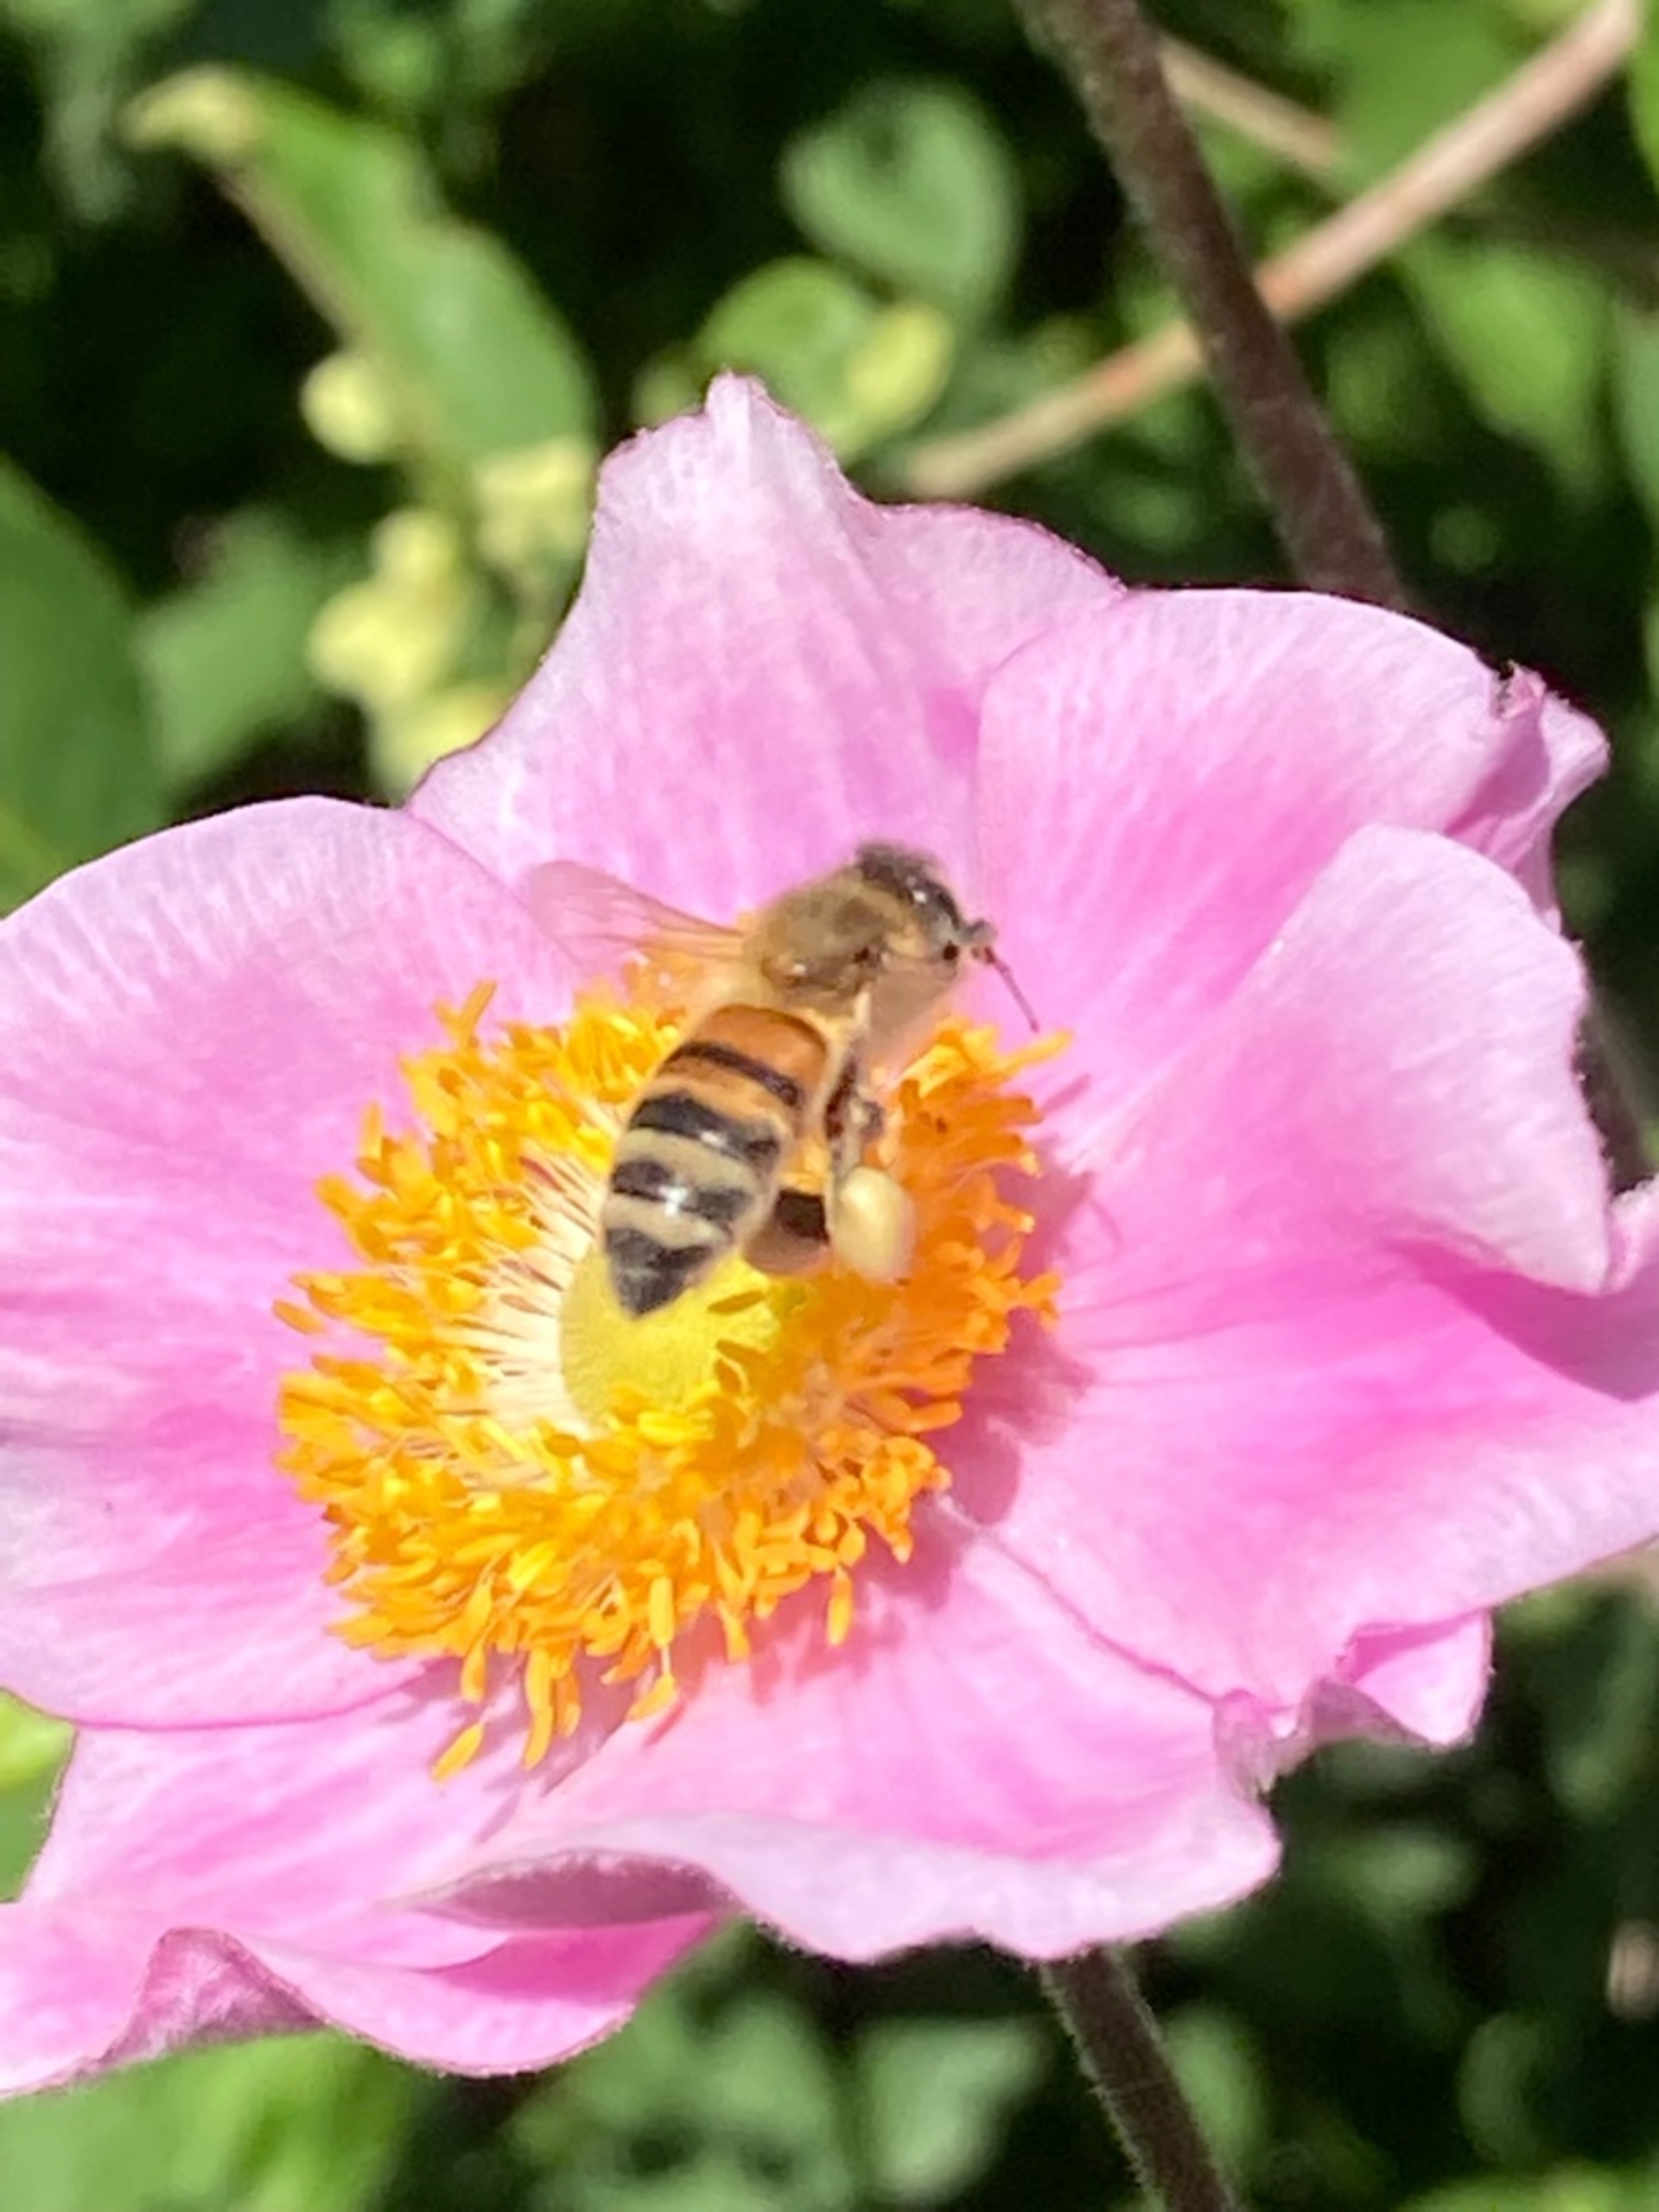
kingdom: Animalia
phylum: Arthropoda
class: Insecta
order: Hymenoptera
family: Apidae
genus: Apis
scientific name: Apis mellifera
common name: Honningbi
